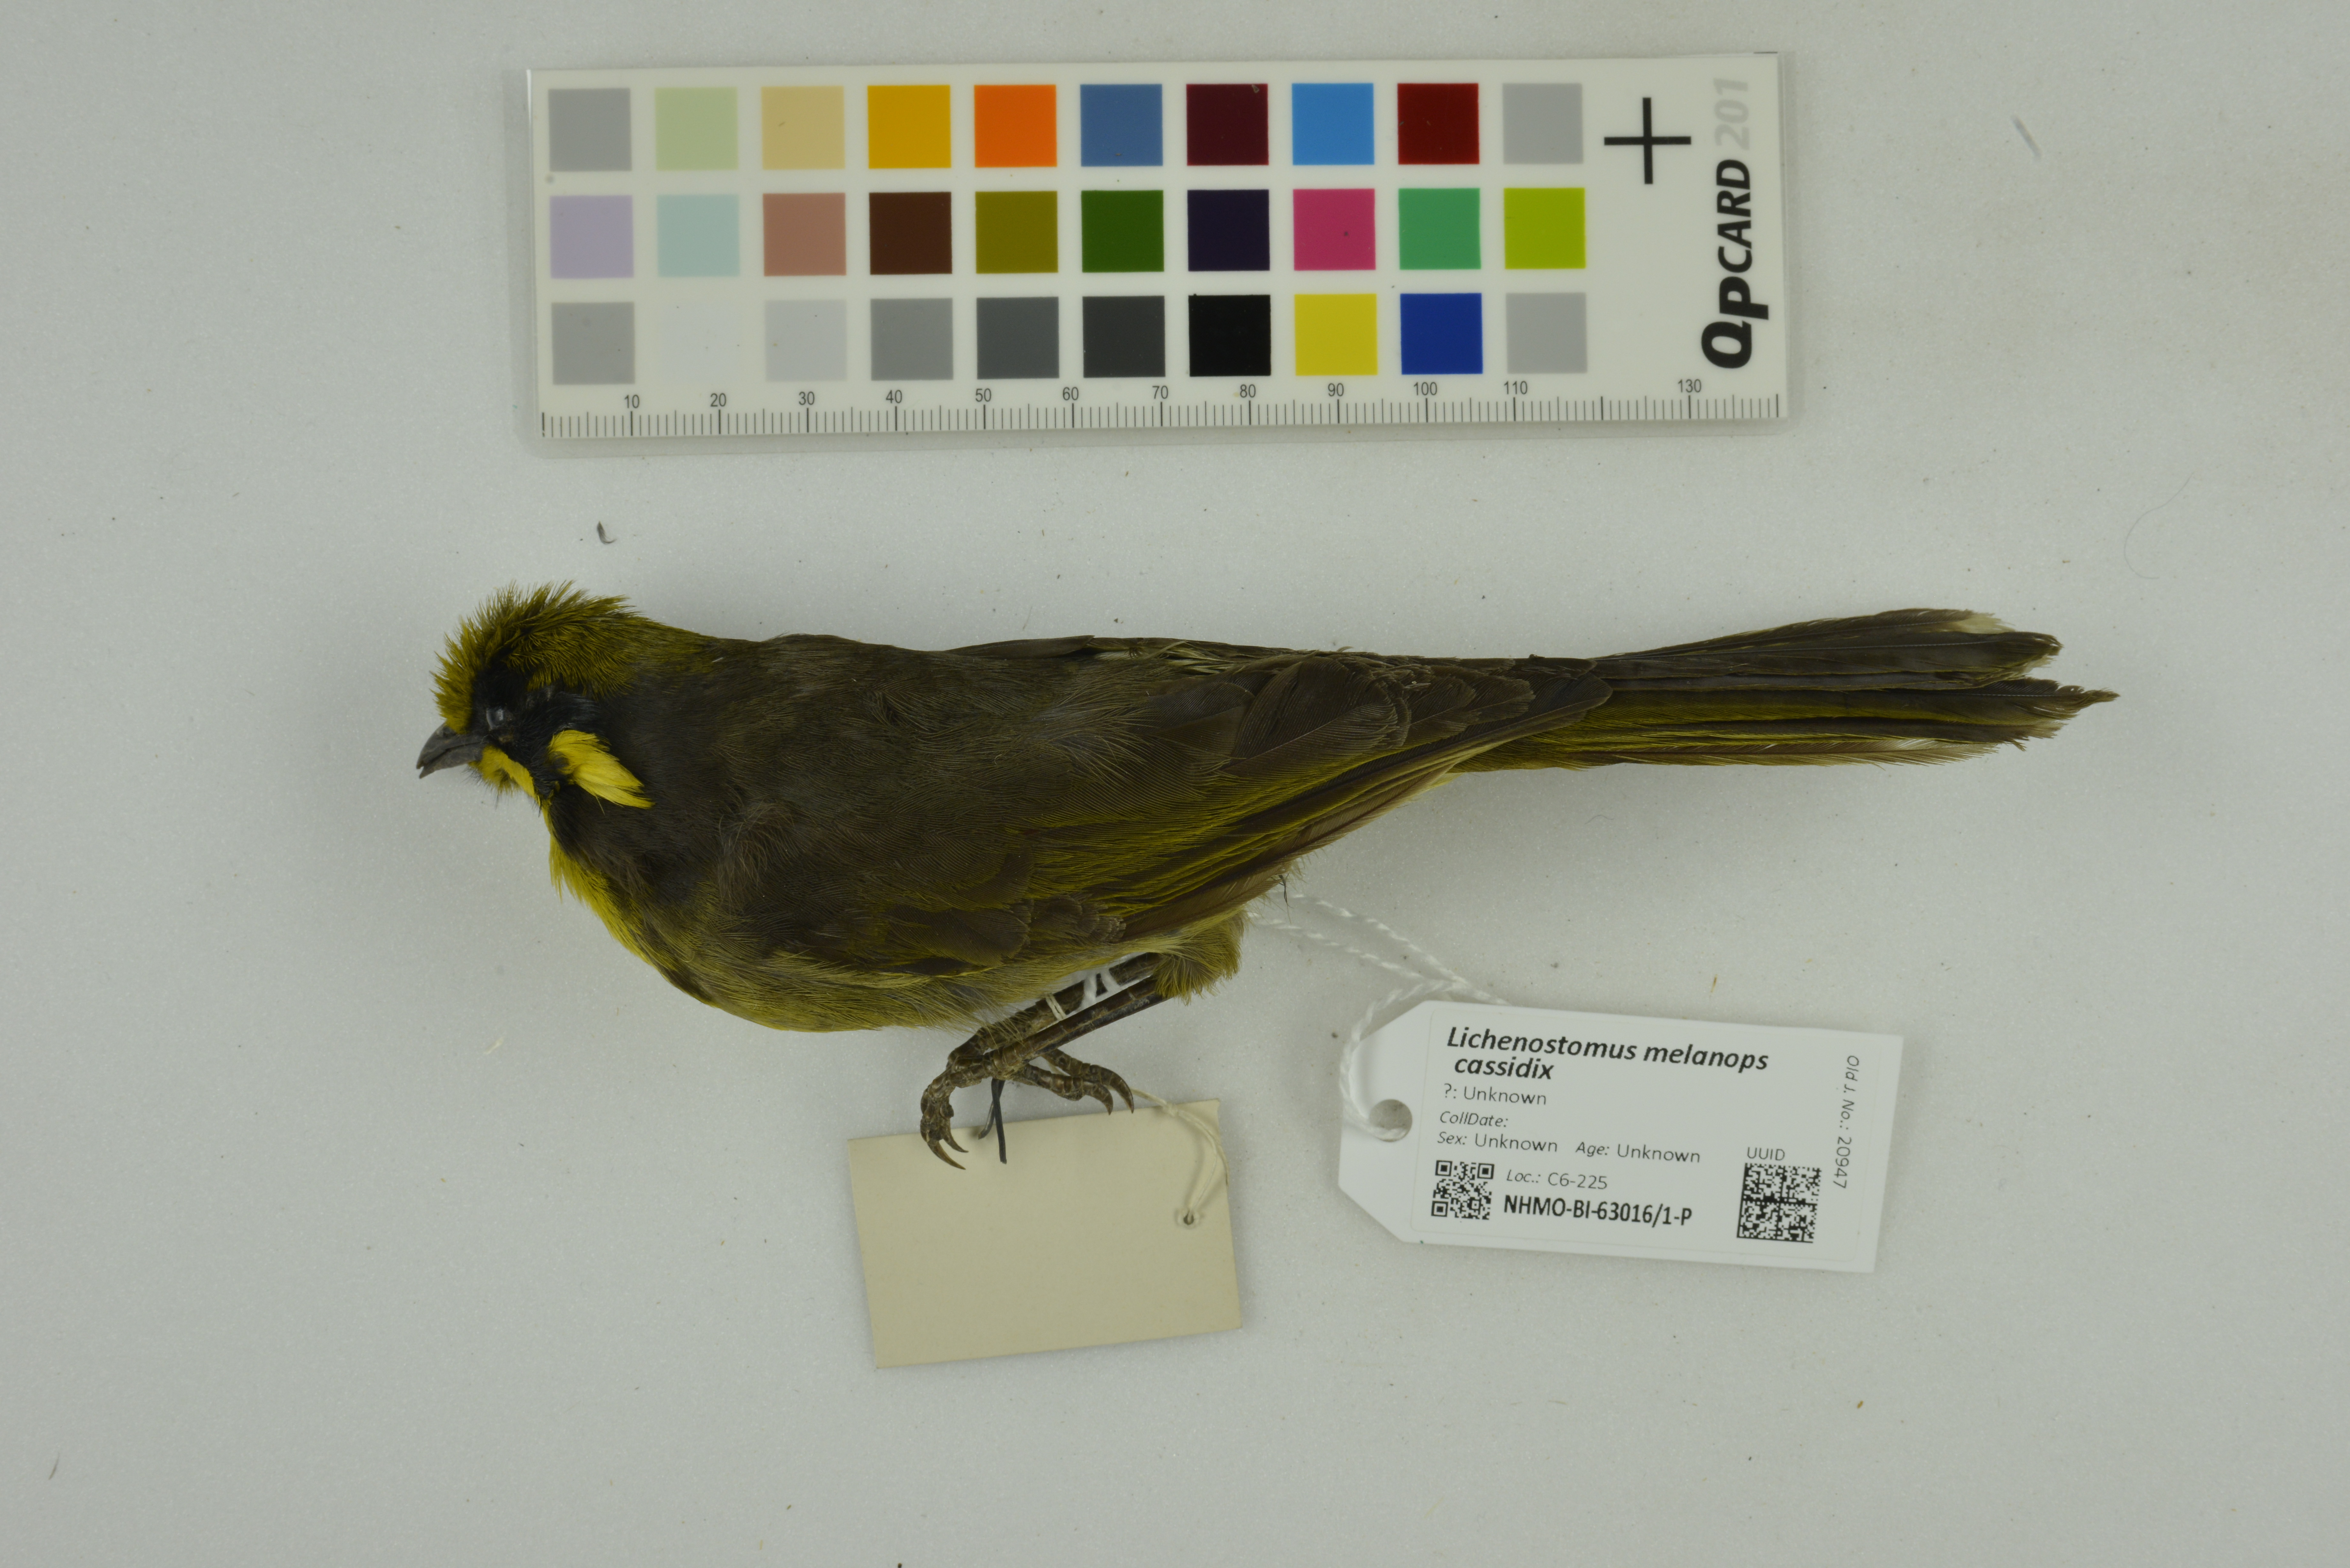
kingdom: Animalia
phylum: Chordata
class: Aves
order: Passeriformes
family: Meliphagidae
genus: Lichenostomus
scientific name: Lichenostomus melanops
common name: Yellow-tufted honeyeater
